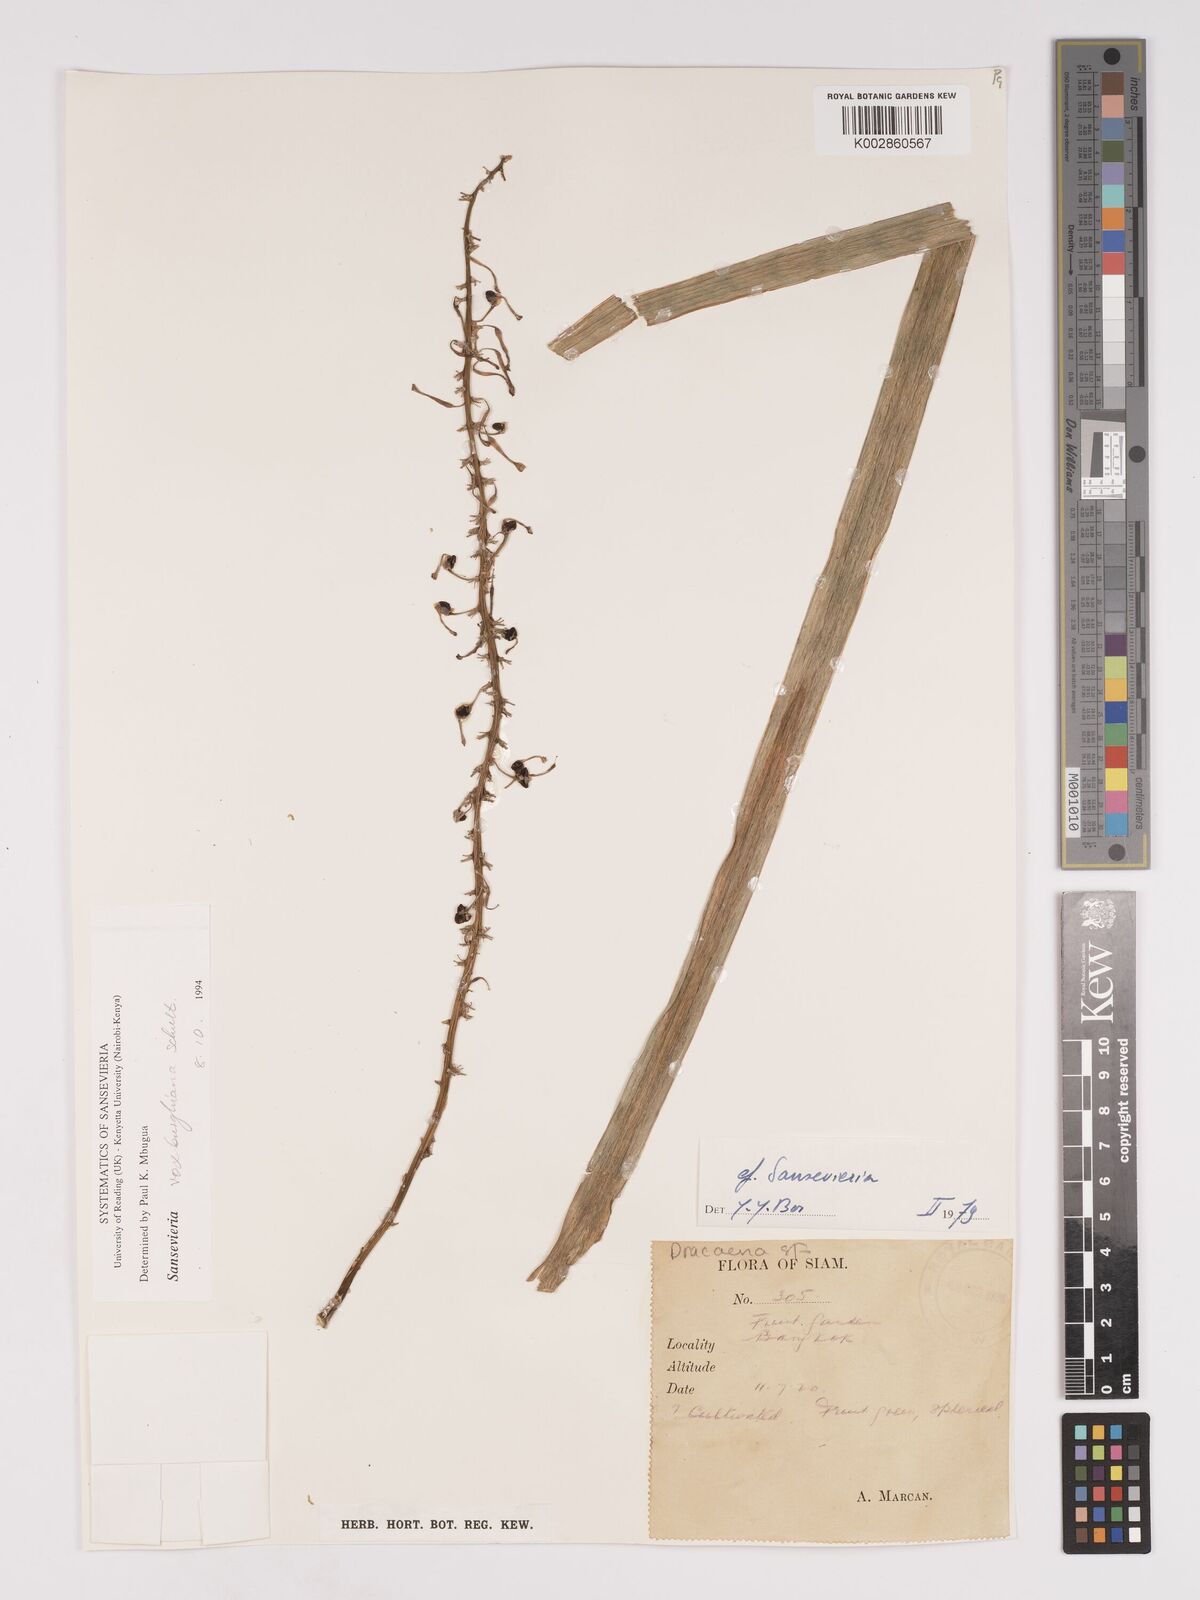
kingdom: Plantae
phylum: Tracheophyta
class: Liliopsida
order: Asparagales
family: Asparagaceae
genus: Dracaena
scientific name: Dracaena
